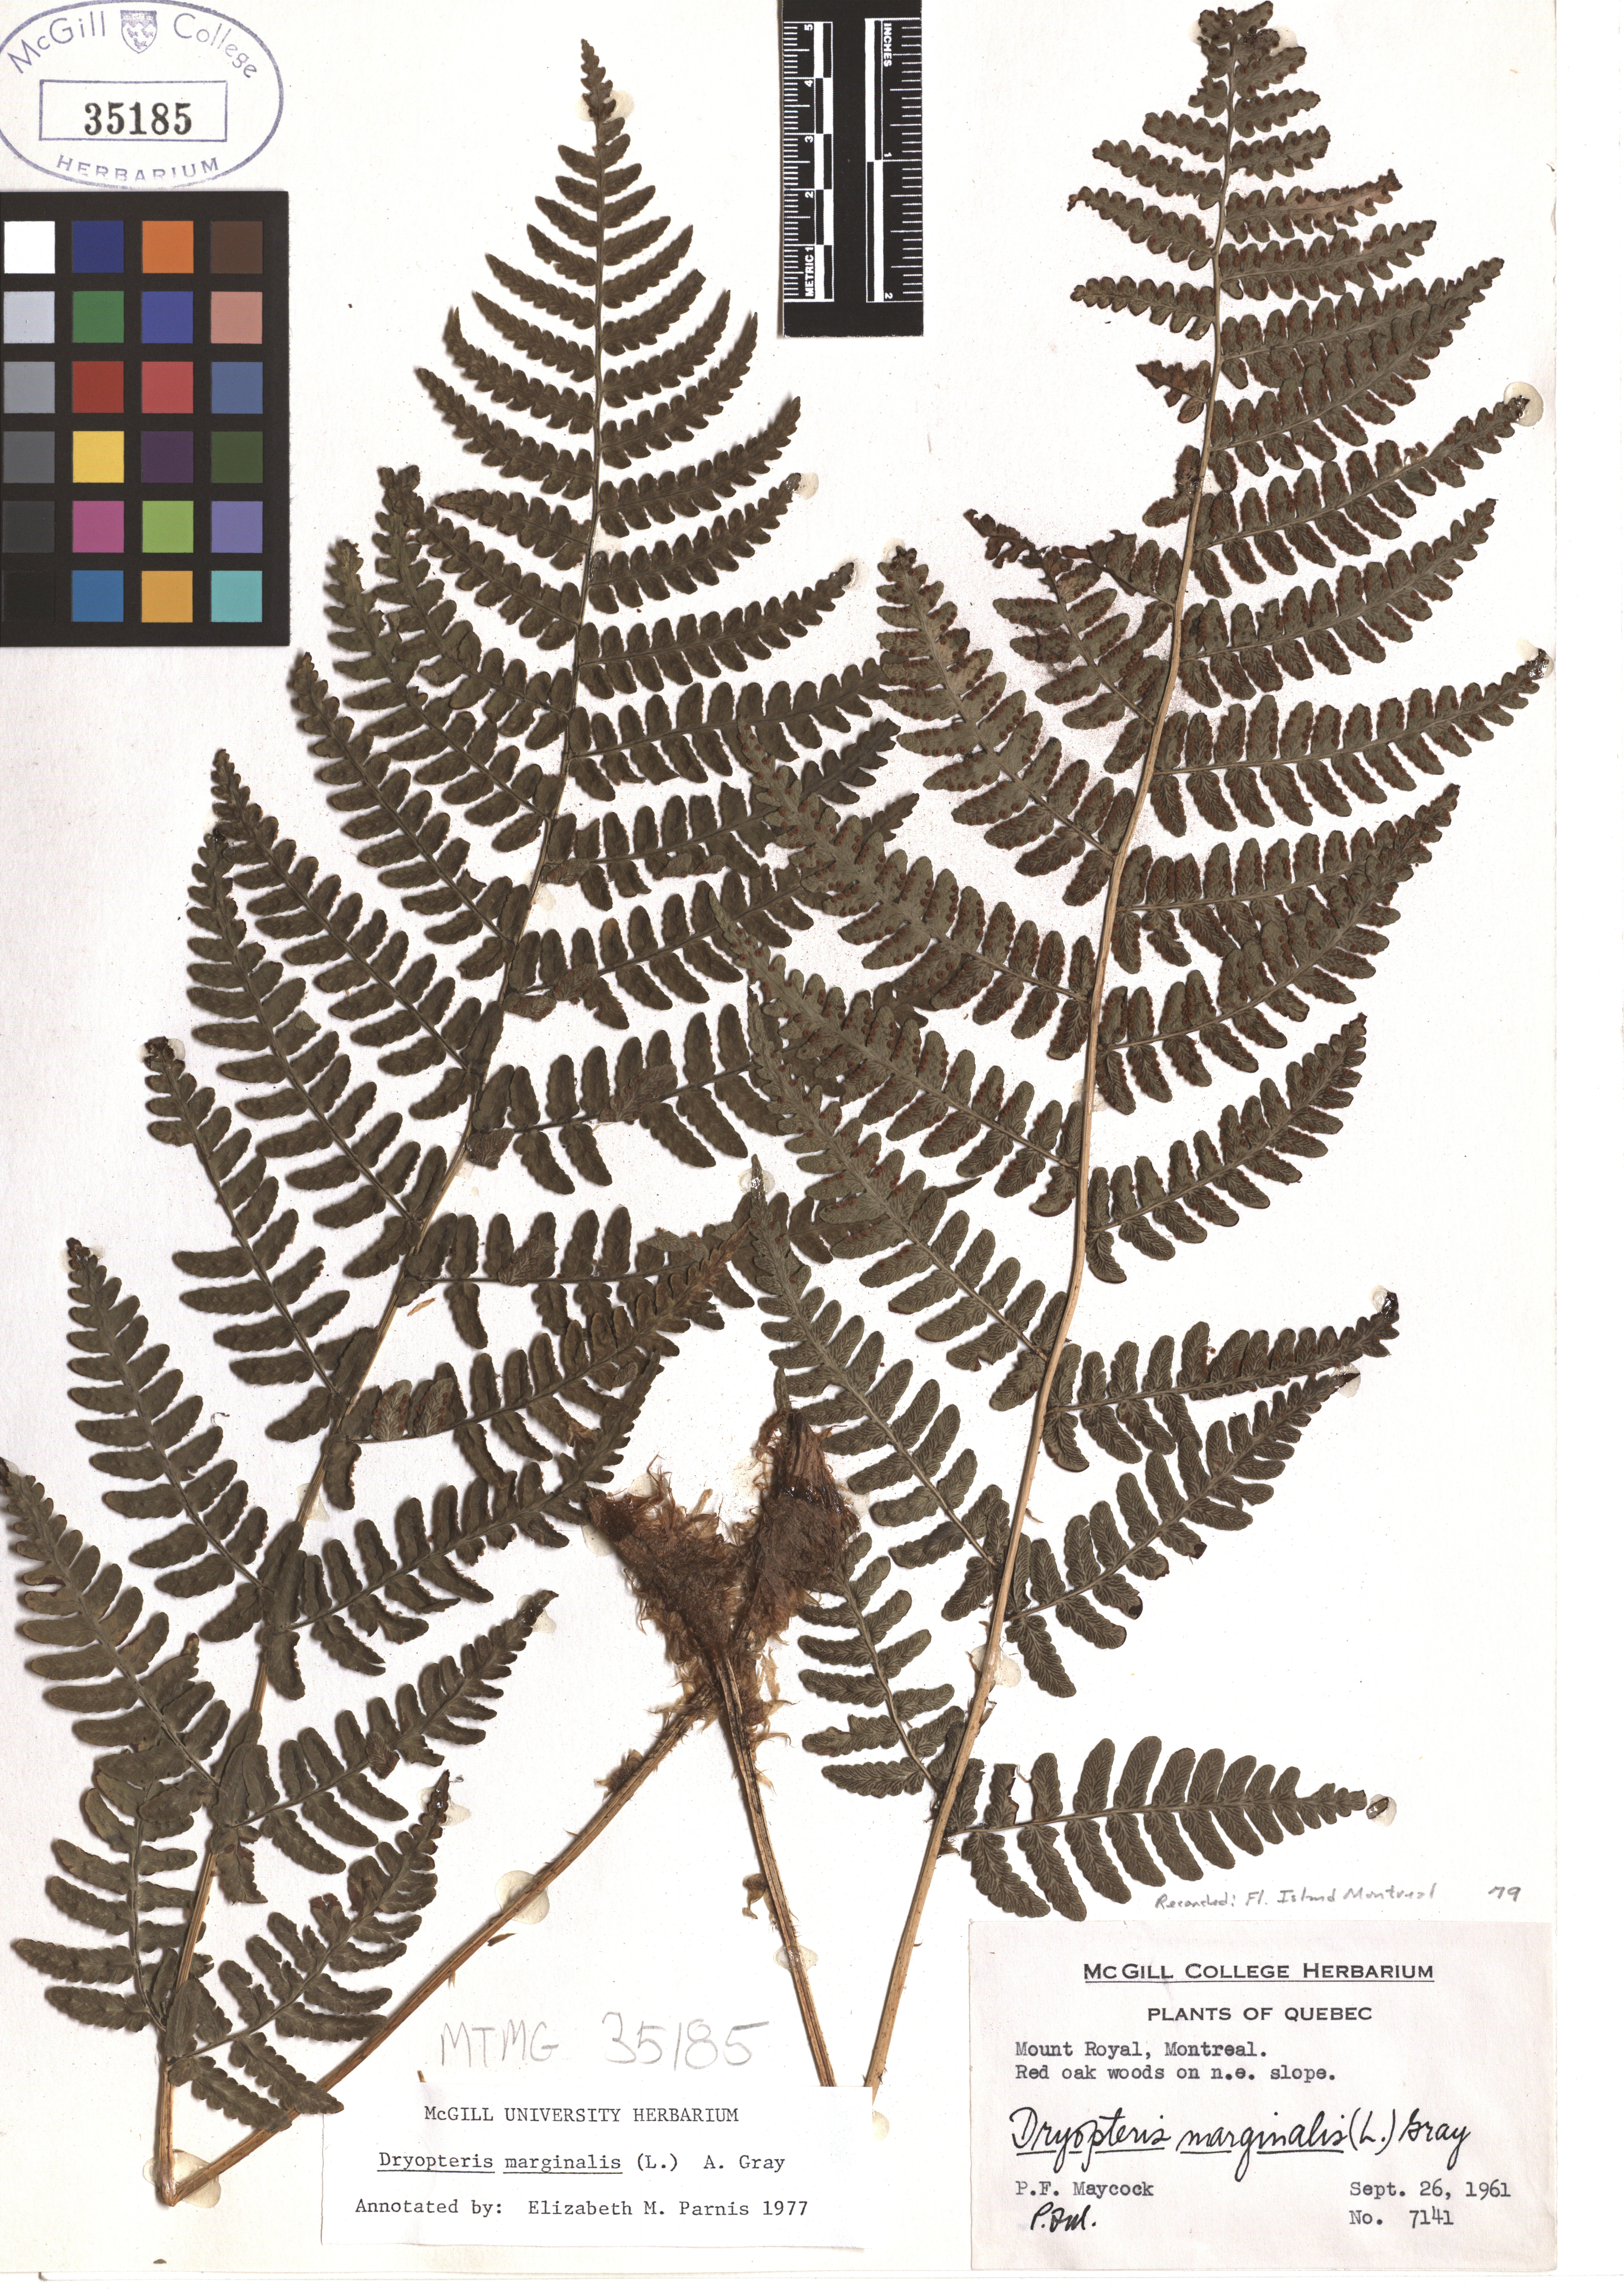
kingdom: Plantae
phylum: Tracheophyta
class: Polypodiopsida
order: Polypodiales
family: Dryopteridaceae
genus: Dryopteris
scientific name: Dryopteris marginalis
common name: Marginal wood fern
